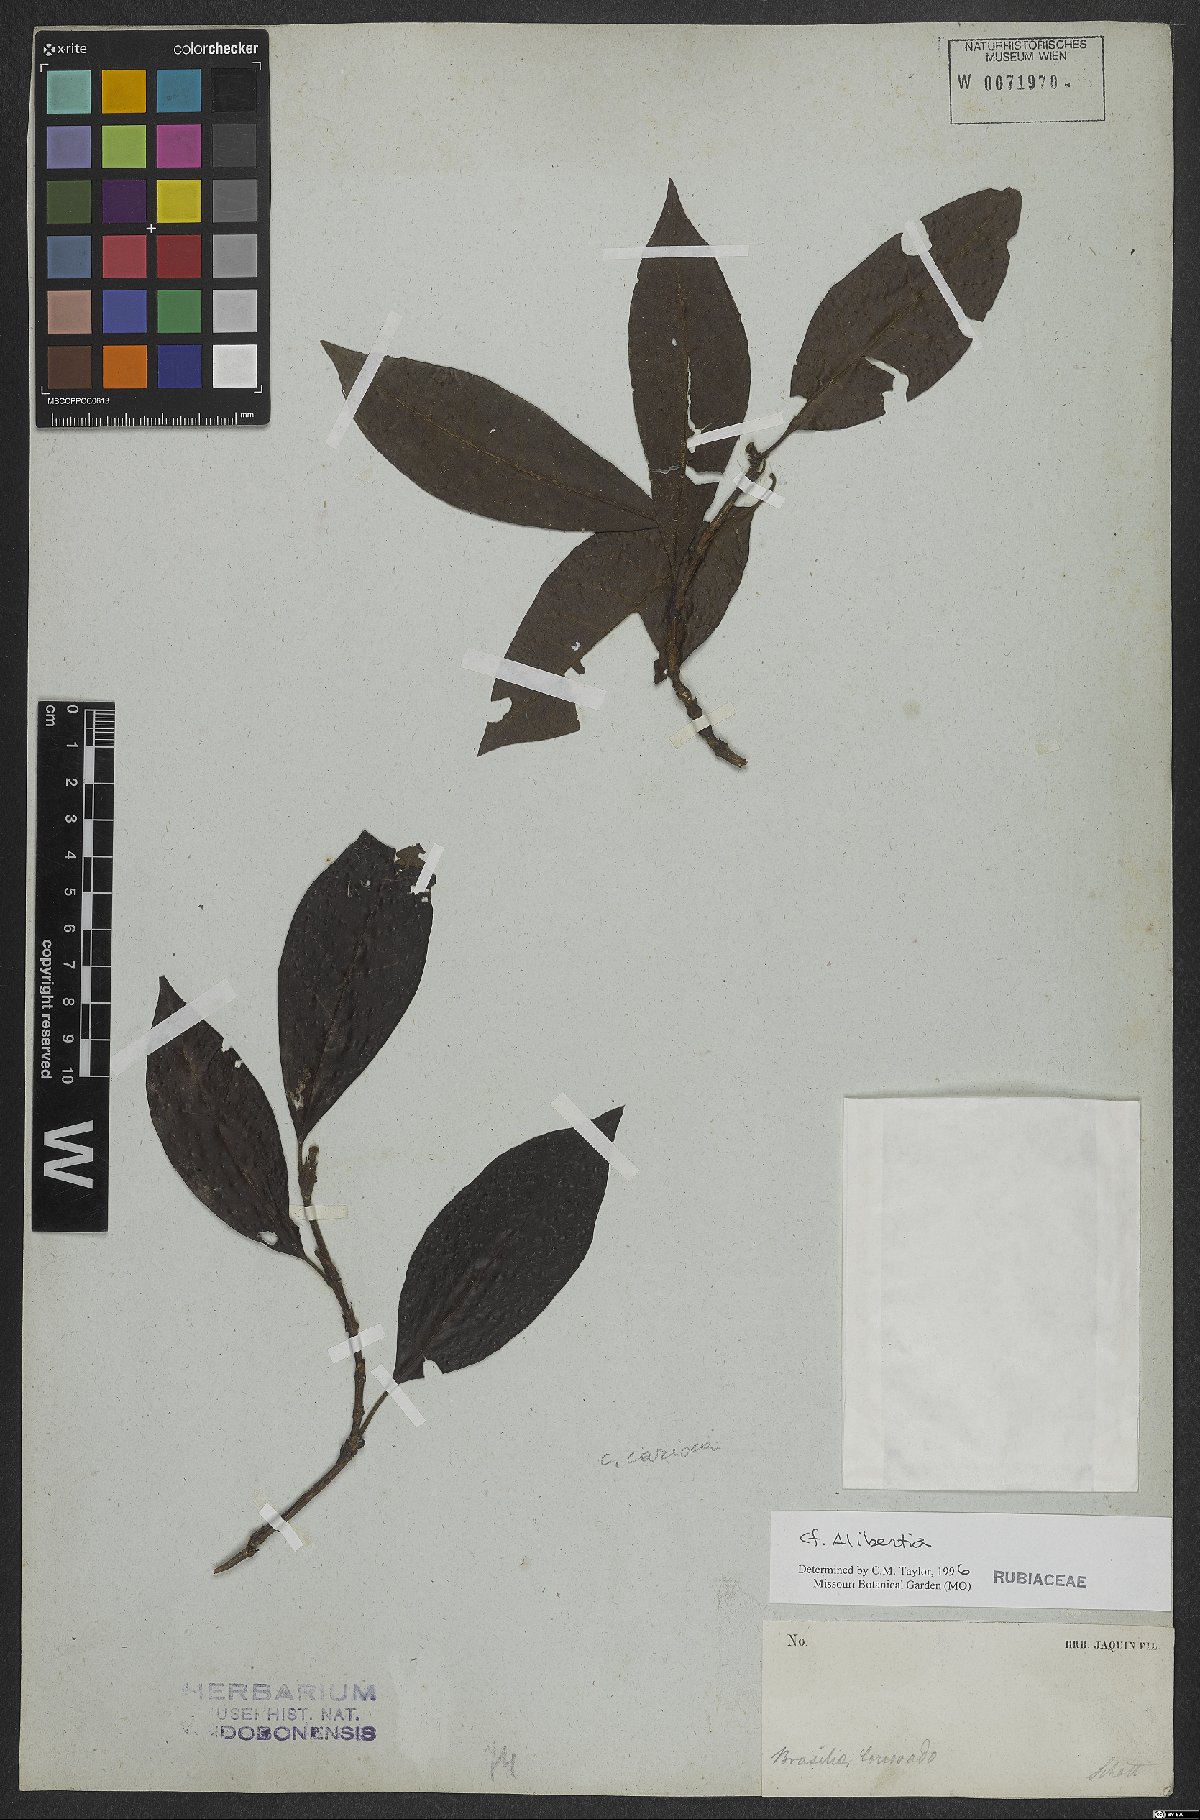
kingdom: Plantae
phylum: Tracheophyta
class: Magnoliopsida
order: Gentianales
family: Rubiaceae
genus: Alibertia
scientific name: Alibertia
